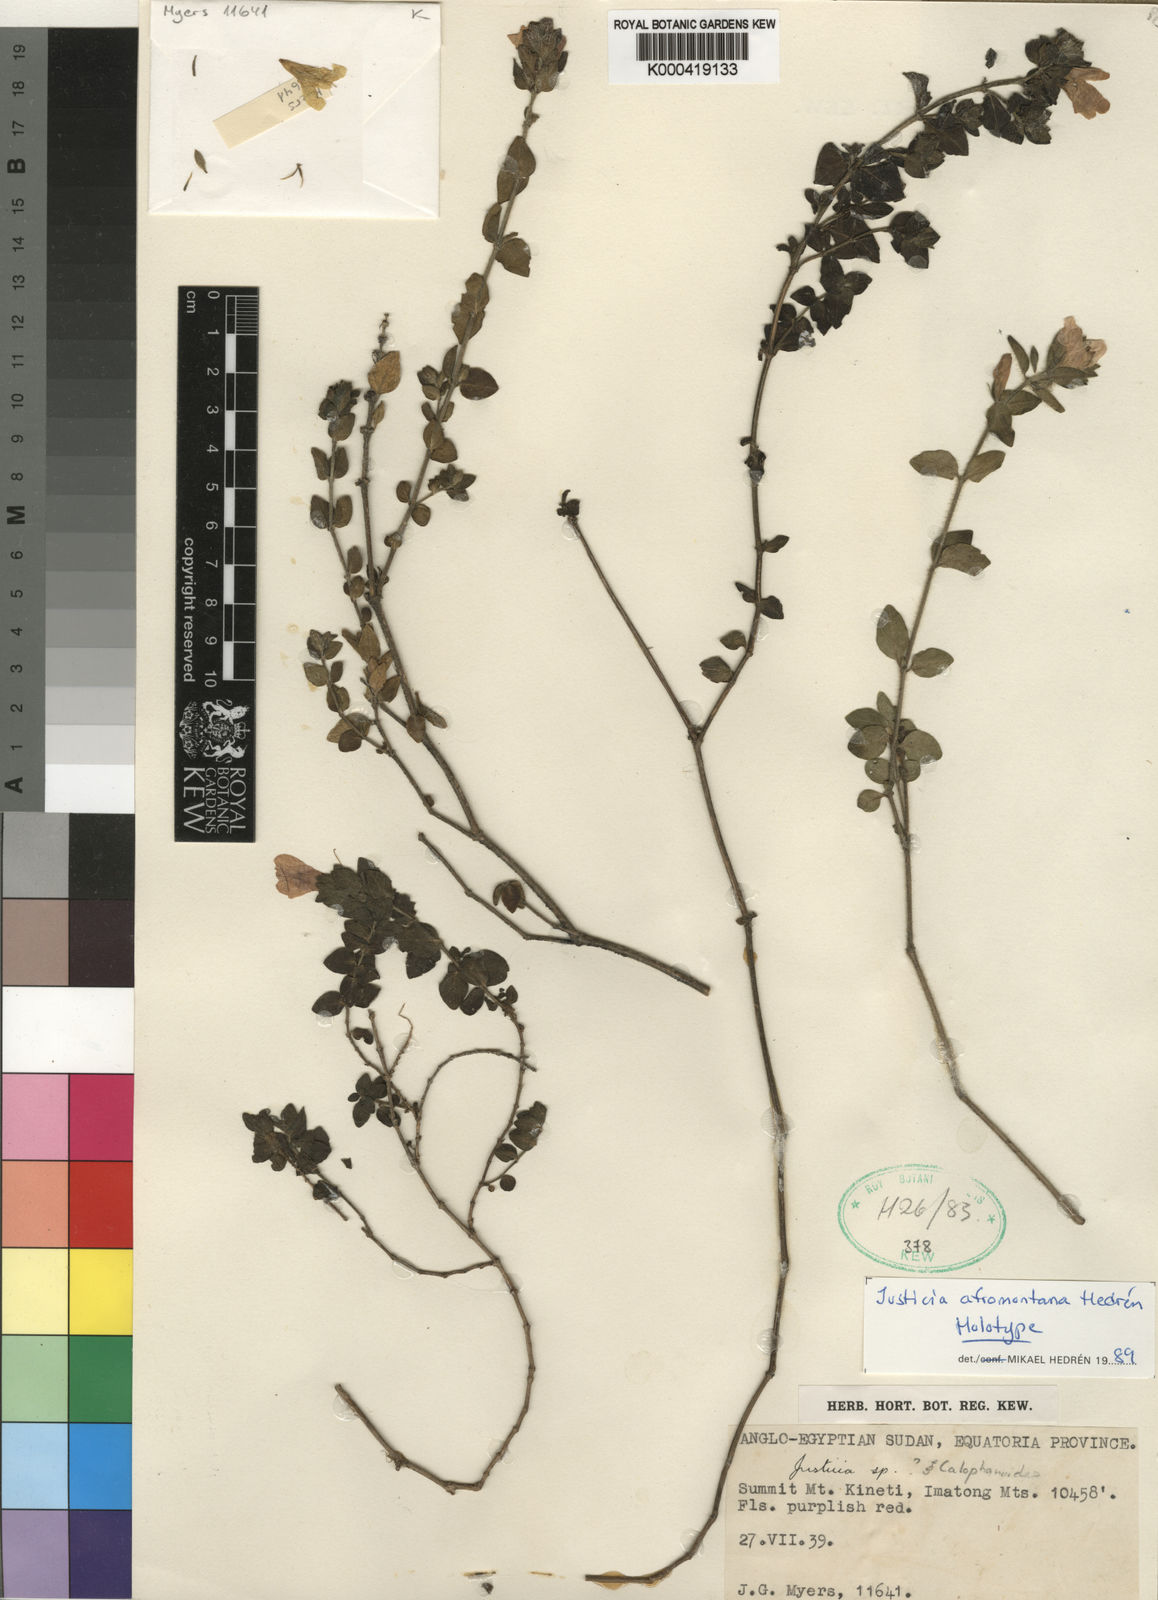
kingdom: Plantae
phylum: Tracheophyta
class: Magnoliopsida
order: Lamiales
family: Acanthaceae
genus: Justicia
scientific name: Justicia
